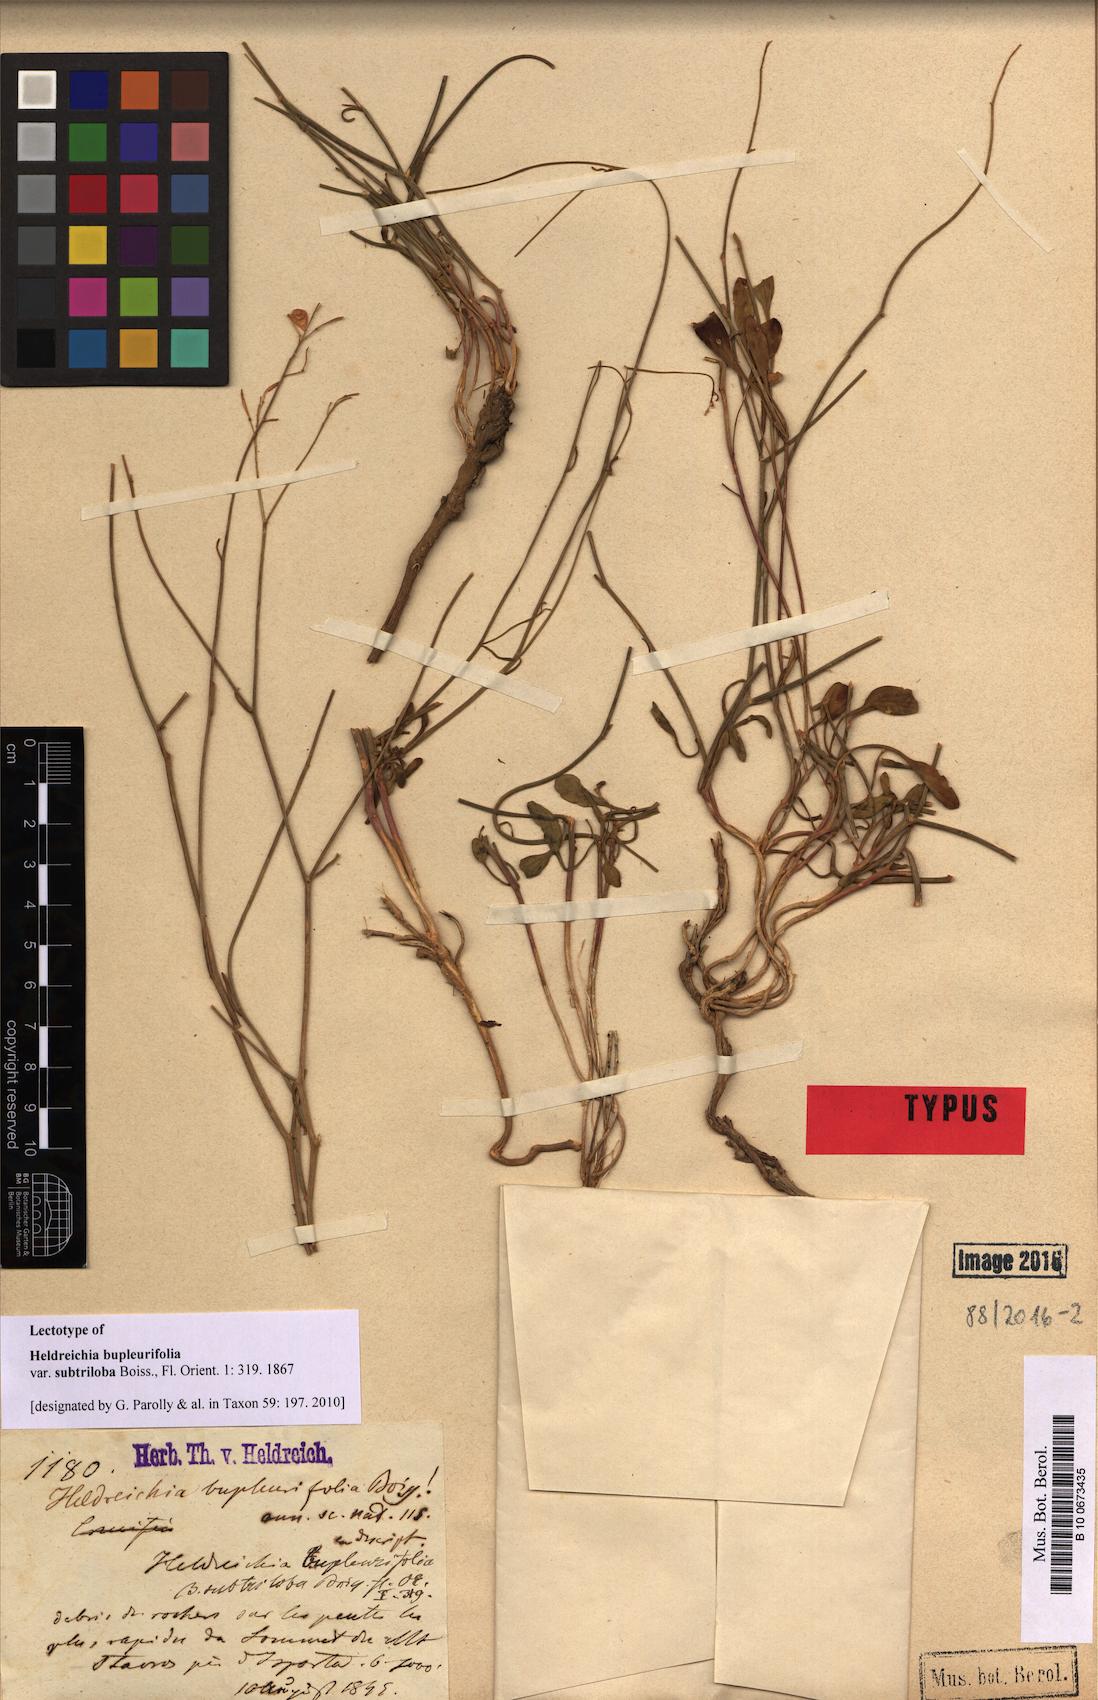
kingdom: Plantae
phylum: Tracheophyta
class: Magnoliopsida
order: Brassicales
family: Brassicaceae
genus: Heldreichia
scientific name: Heldreichia bupleurifolia
